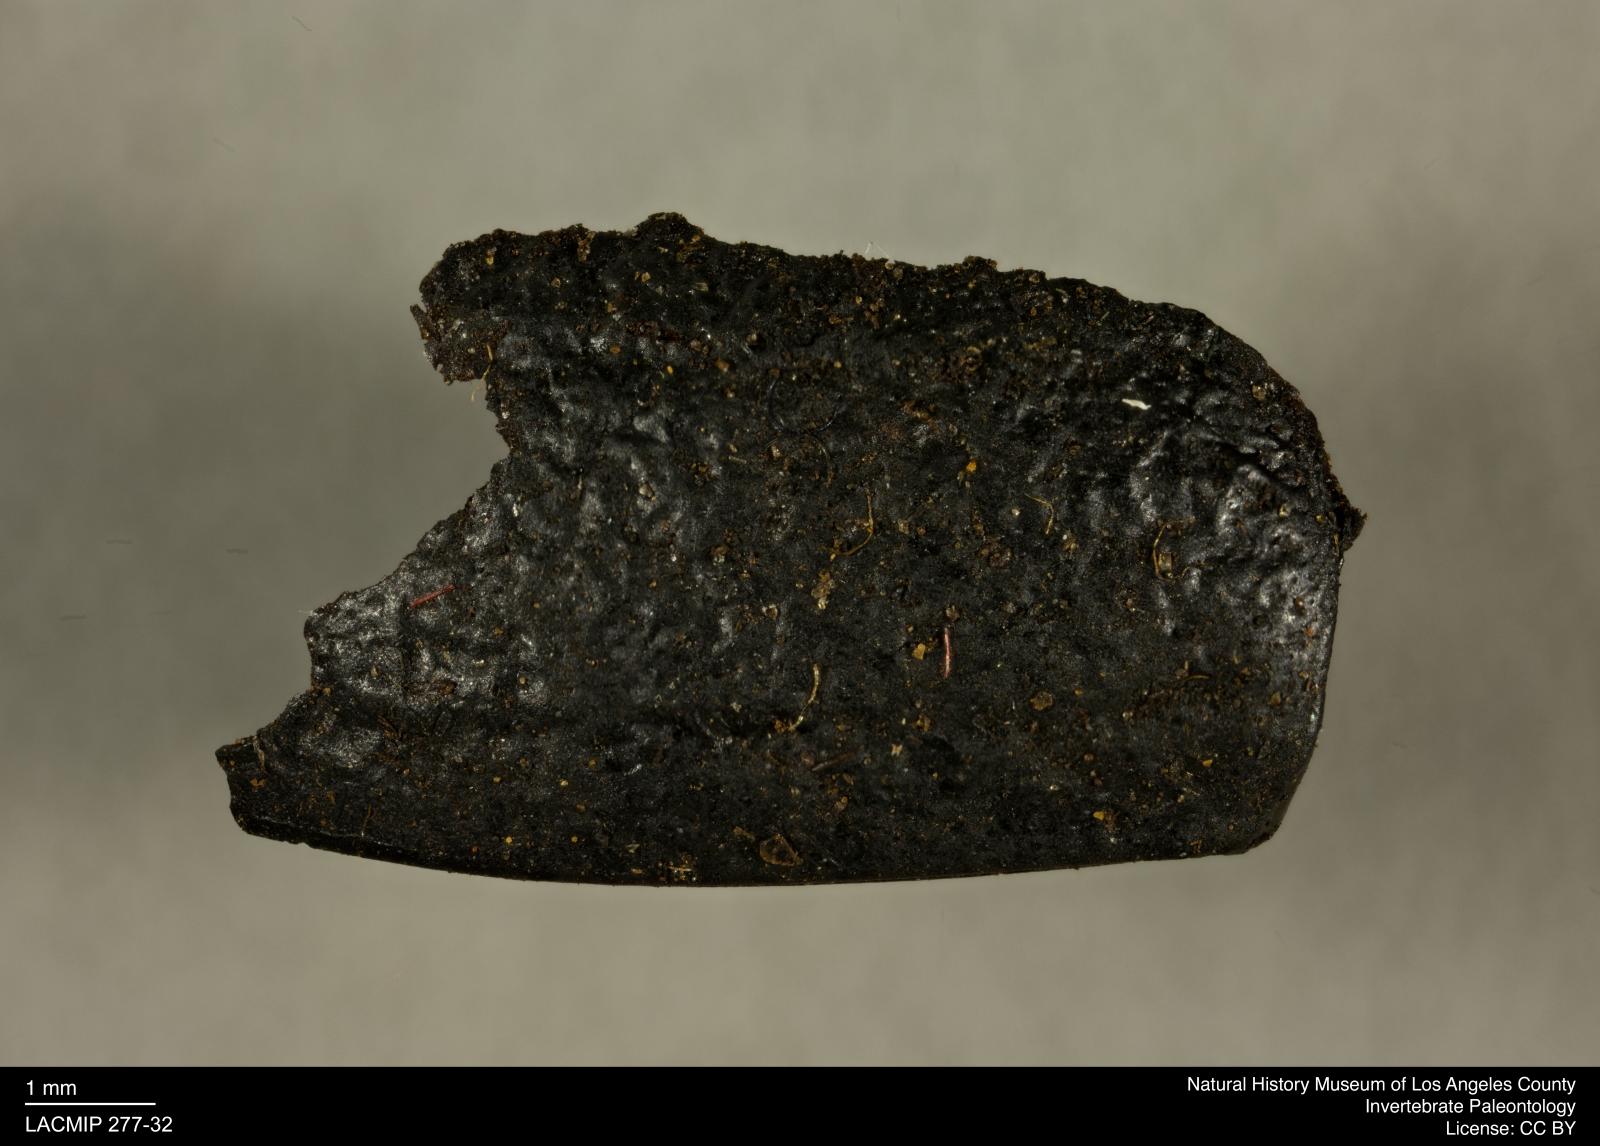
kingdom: Animalia
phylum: Arthropoda
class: Insecta
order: Coleoptera
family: Tenebrionidae
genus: Coniontis
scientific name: Coniontis abdominalis
